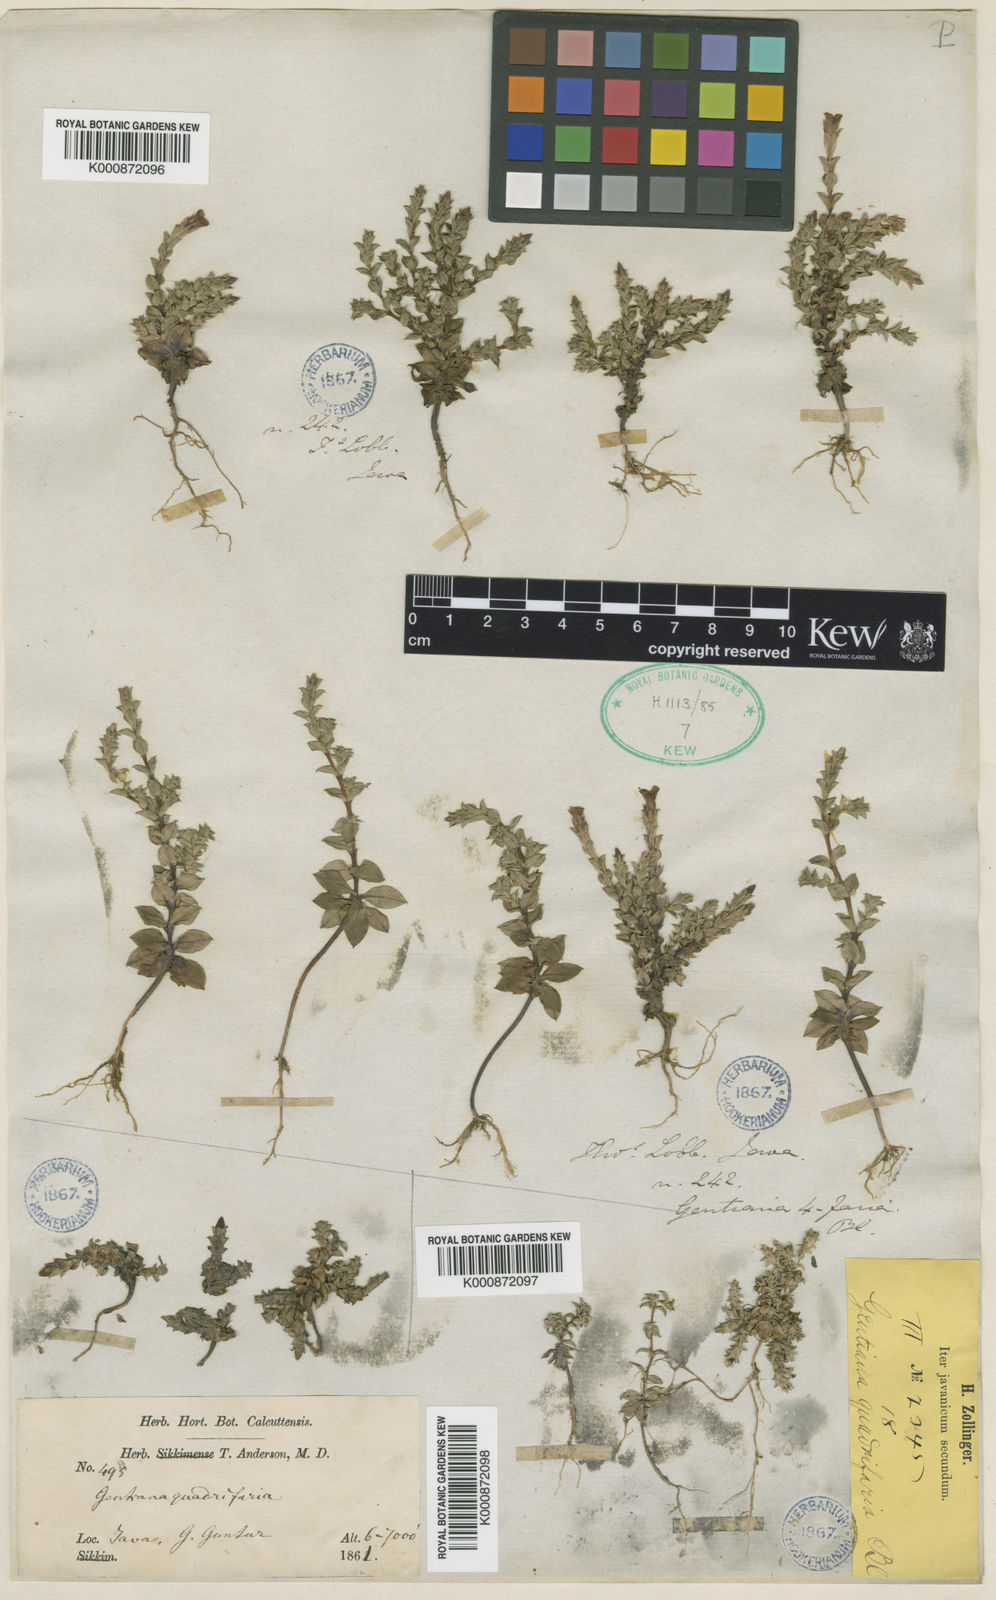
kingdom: Plantae
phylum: Tracheophyta
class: Magnoliopsida
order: Gentianales
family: Gentianaceae
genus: Gentiana
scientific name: Gentiana quadrifaria
